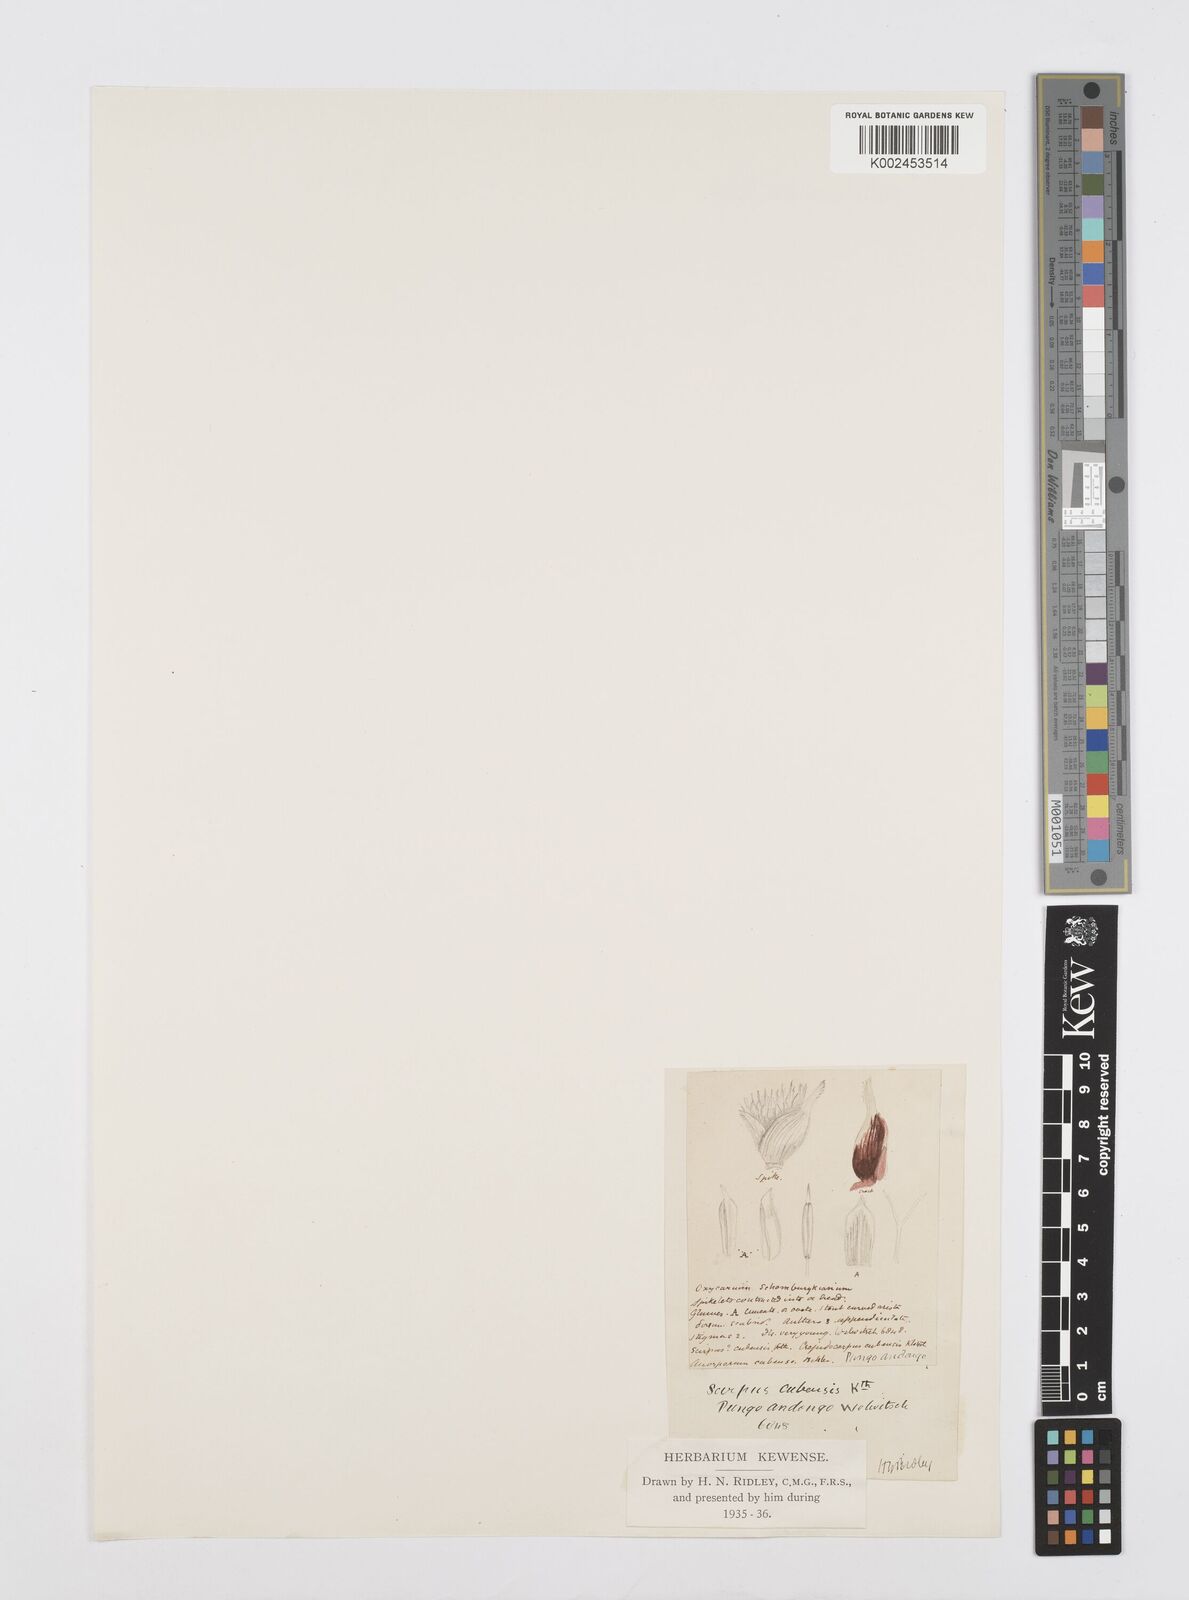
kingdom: Plantae
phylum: Tracheophyta
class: Liliopsida
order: Poales
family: Cyperaceae
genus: Cyperus
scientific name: Cyperus elegans
